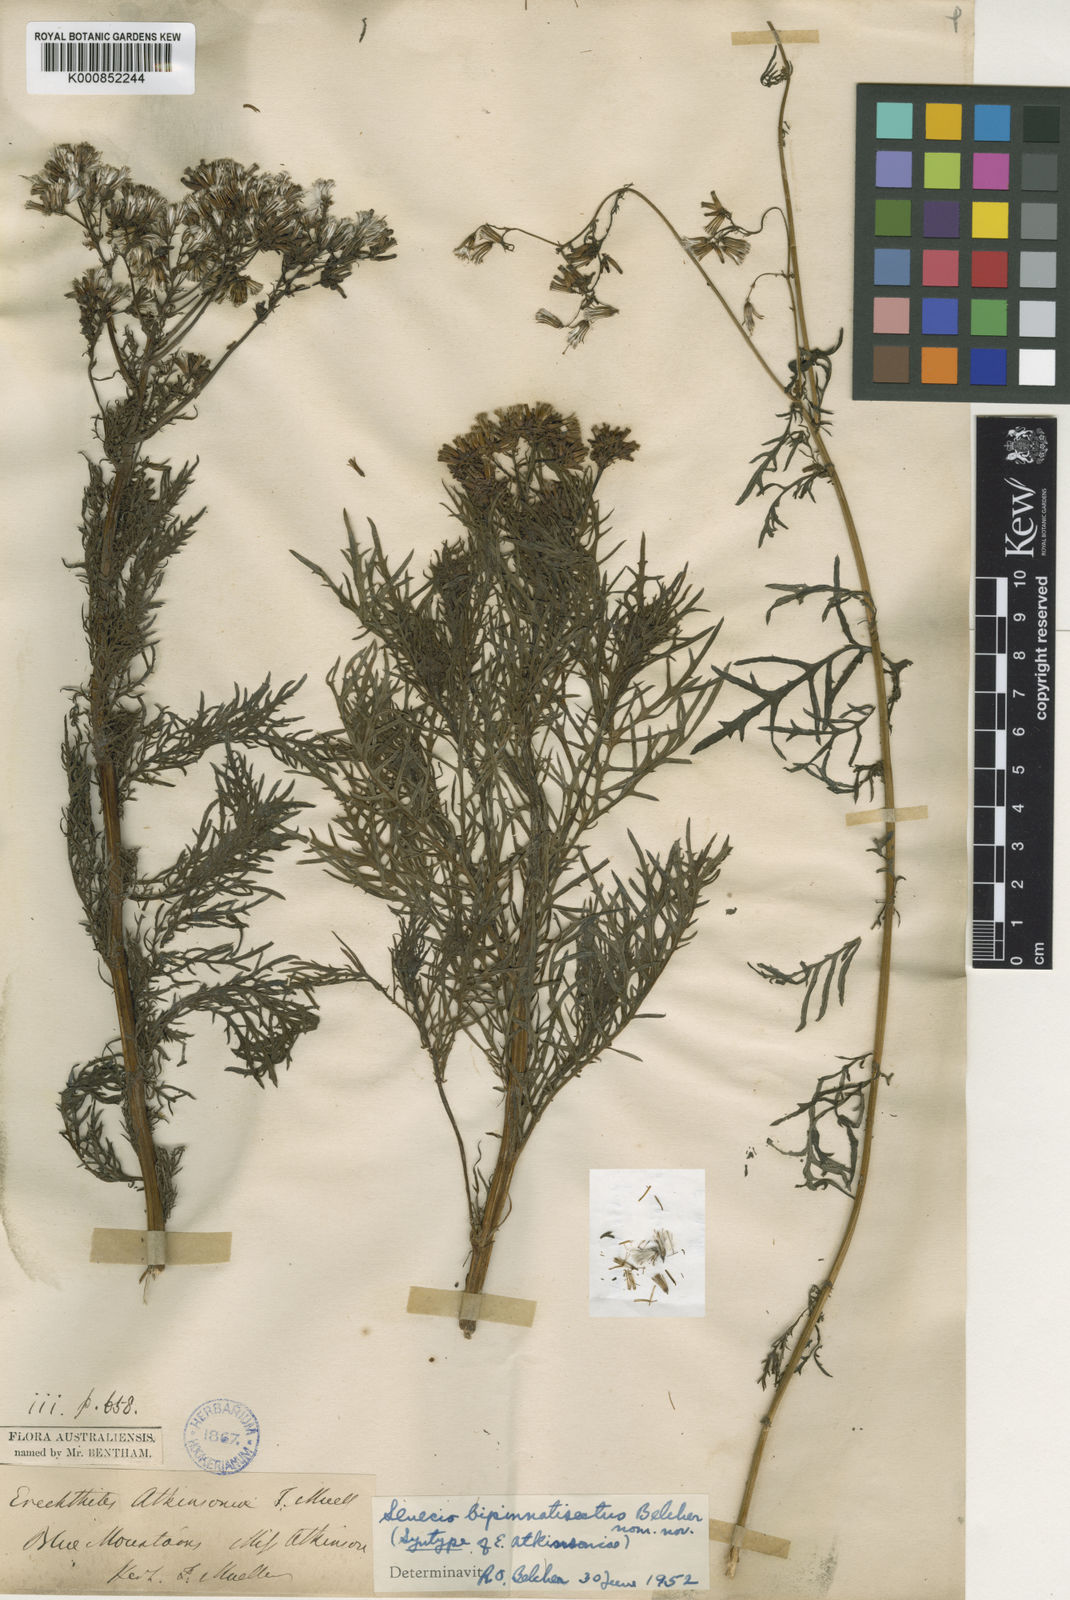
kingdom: Plantae
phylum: Tracheophyta
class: Magnoliopsida
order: Asterales
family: Asteraceae
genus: Senecio
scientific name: Senecio bipinnatisectus
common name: Australian fireweed
